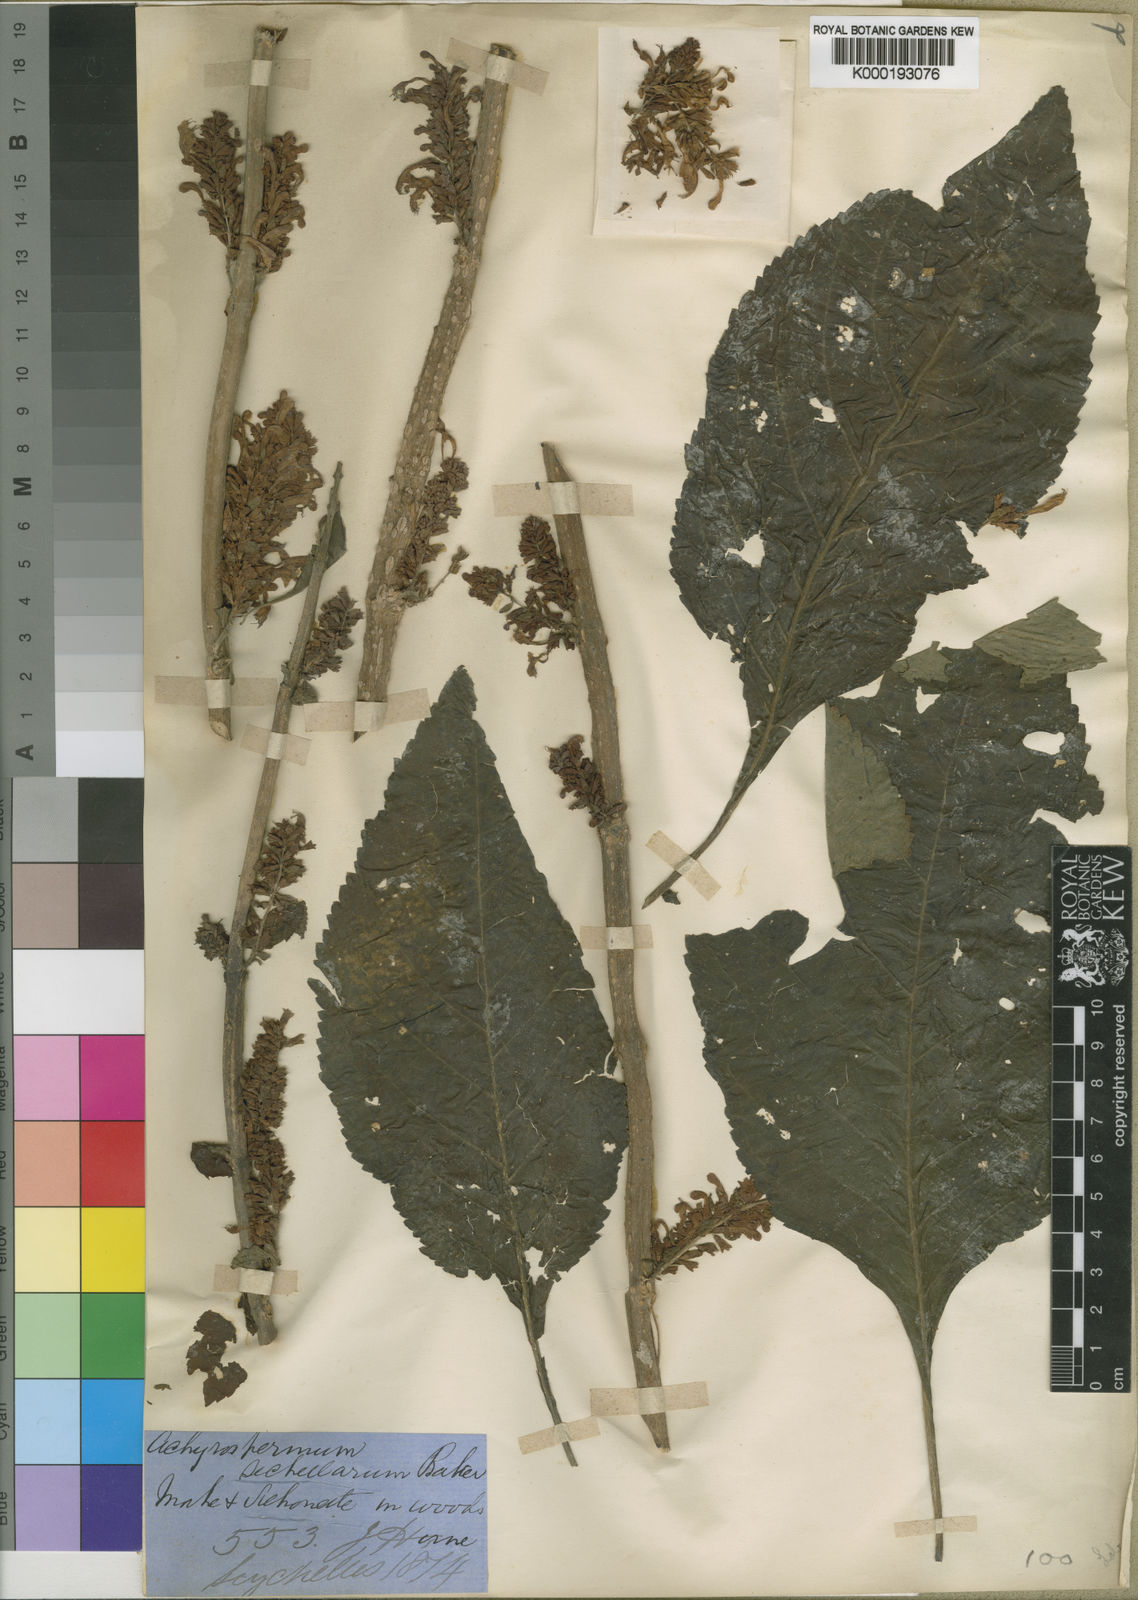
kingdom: Plantae
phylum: Tracheophyta
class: Magnoliopsida
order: Lamiales
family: Lamiaceae
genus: Achyrospermum
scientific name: Achyrospermum
